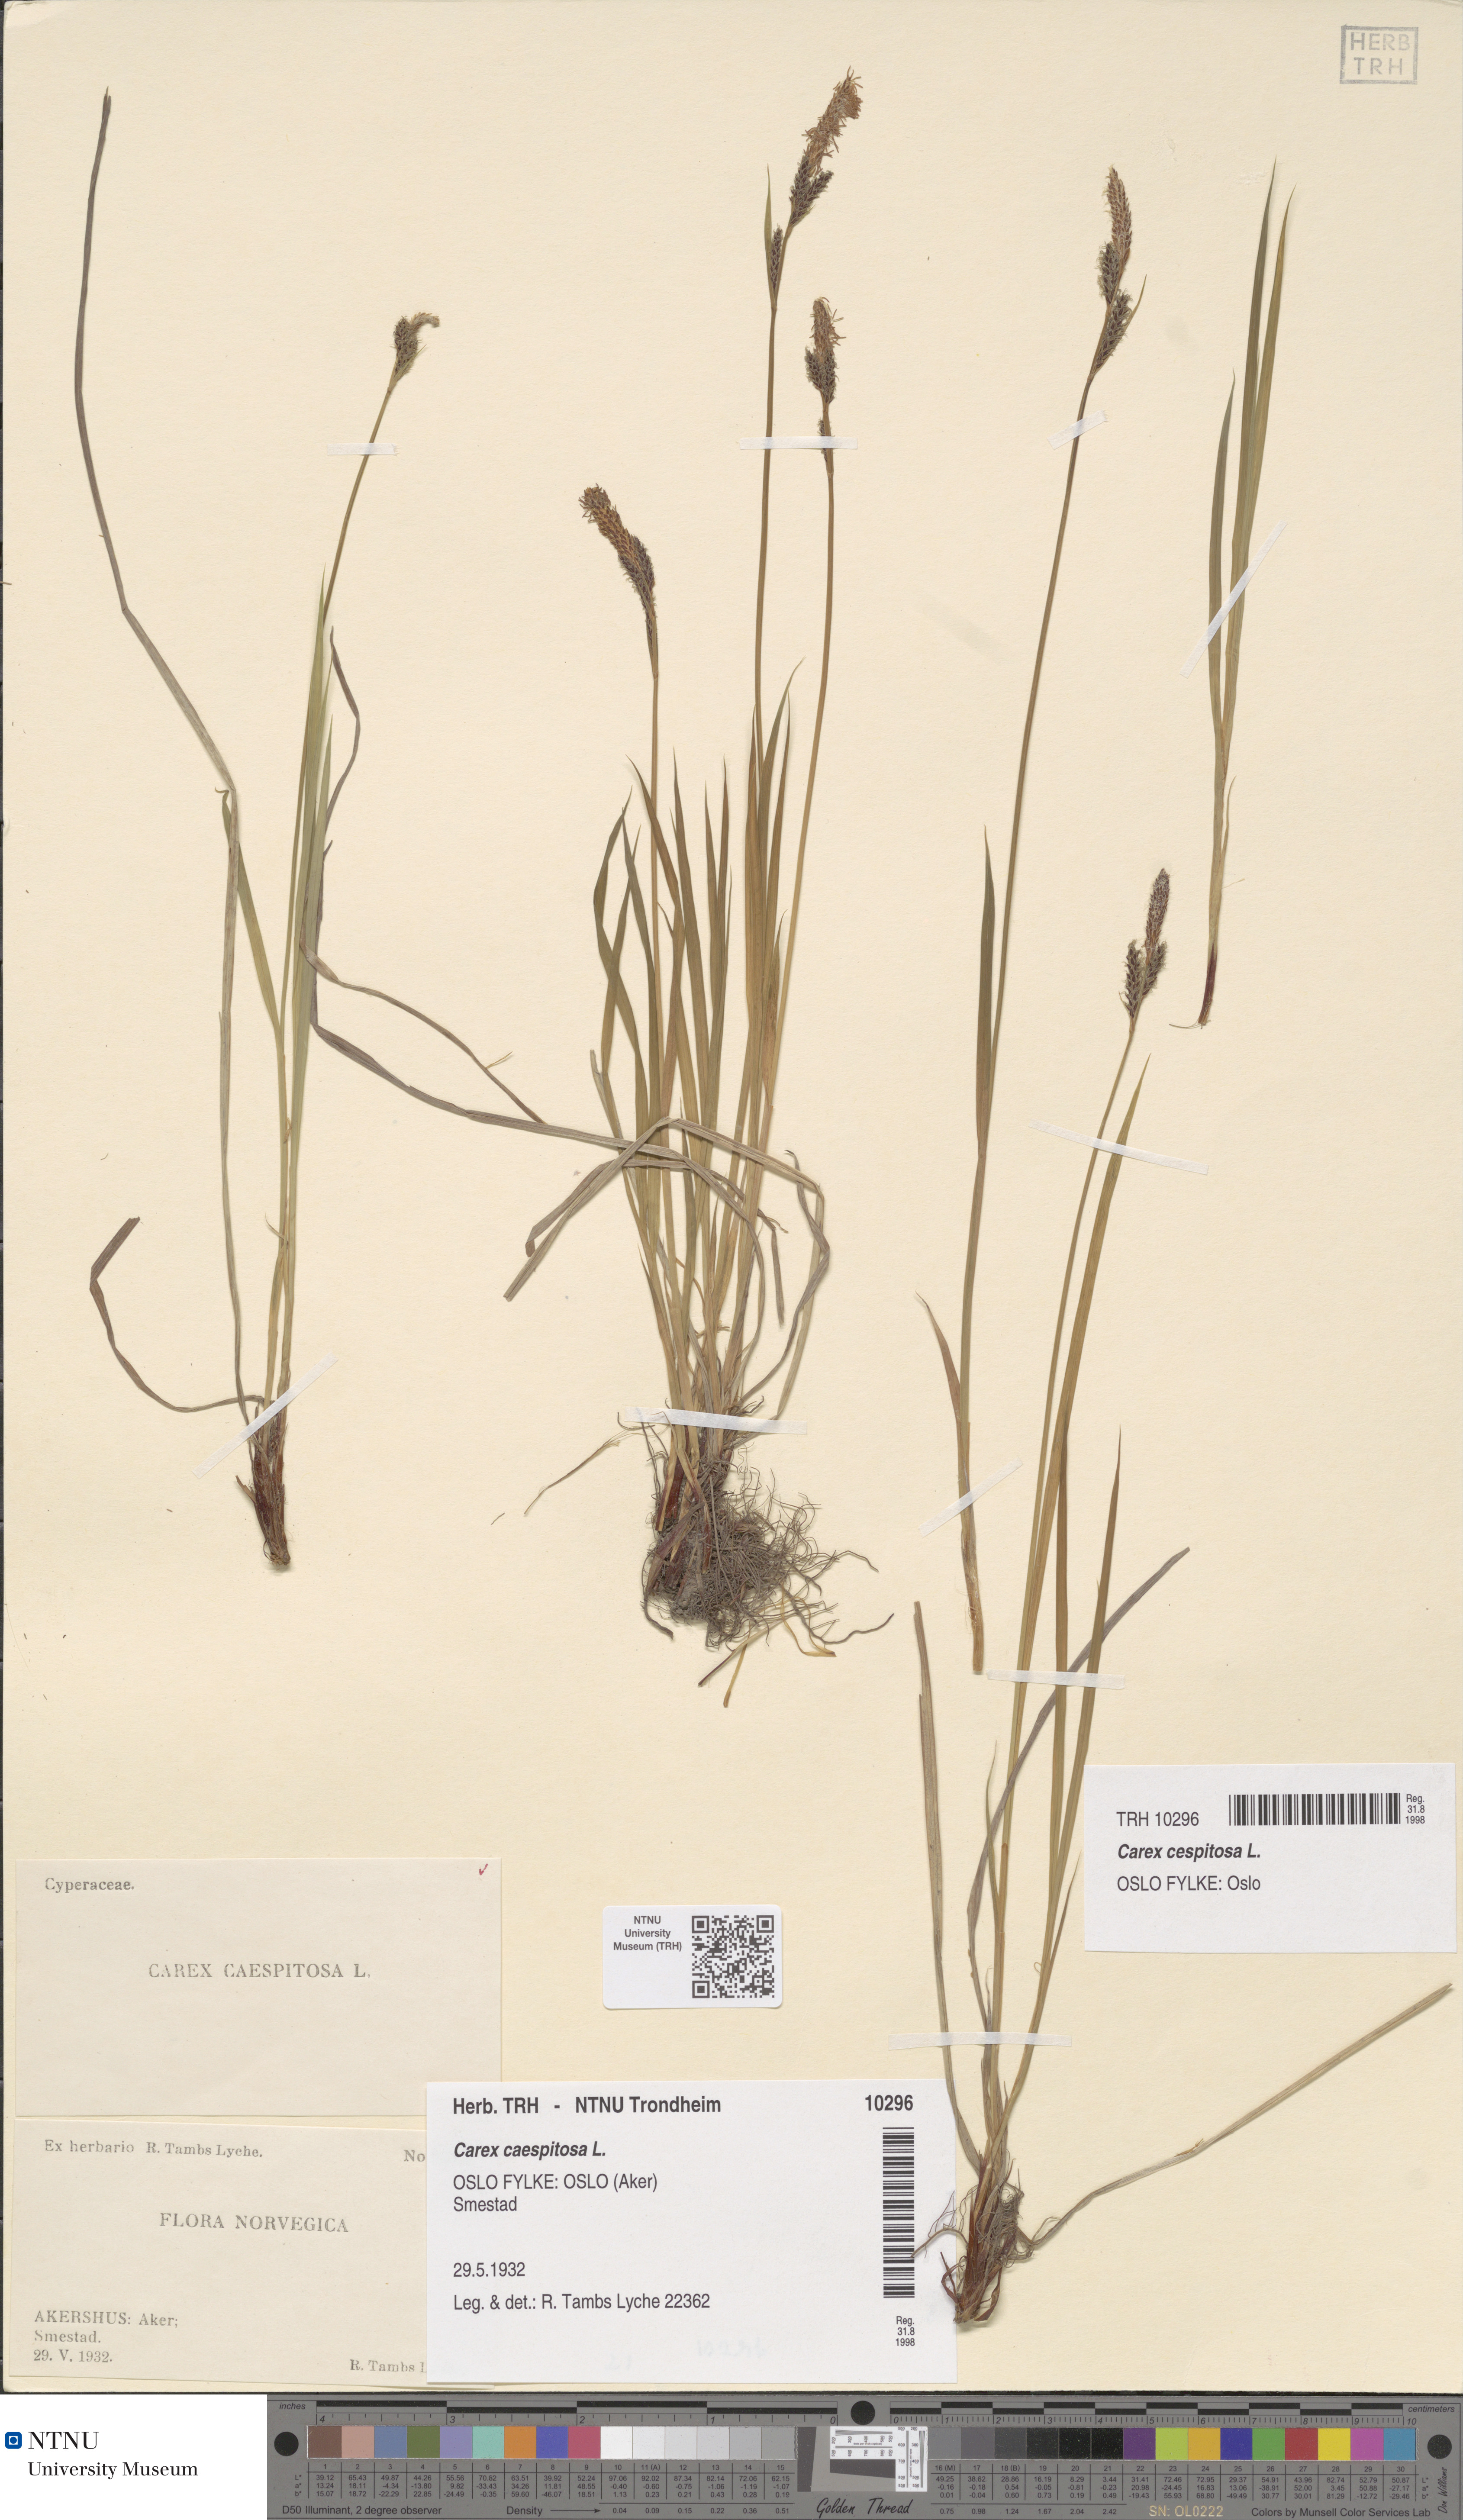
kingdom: Plantae
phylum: Tracheophyta
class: Liliopsida
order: Poales
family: Cyperaceae
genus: Carex
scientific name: Carex cespitosa
